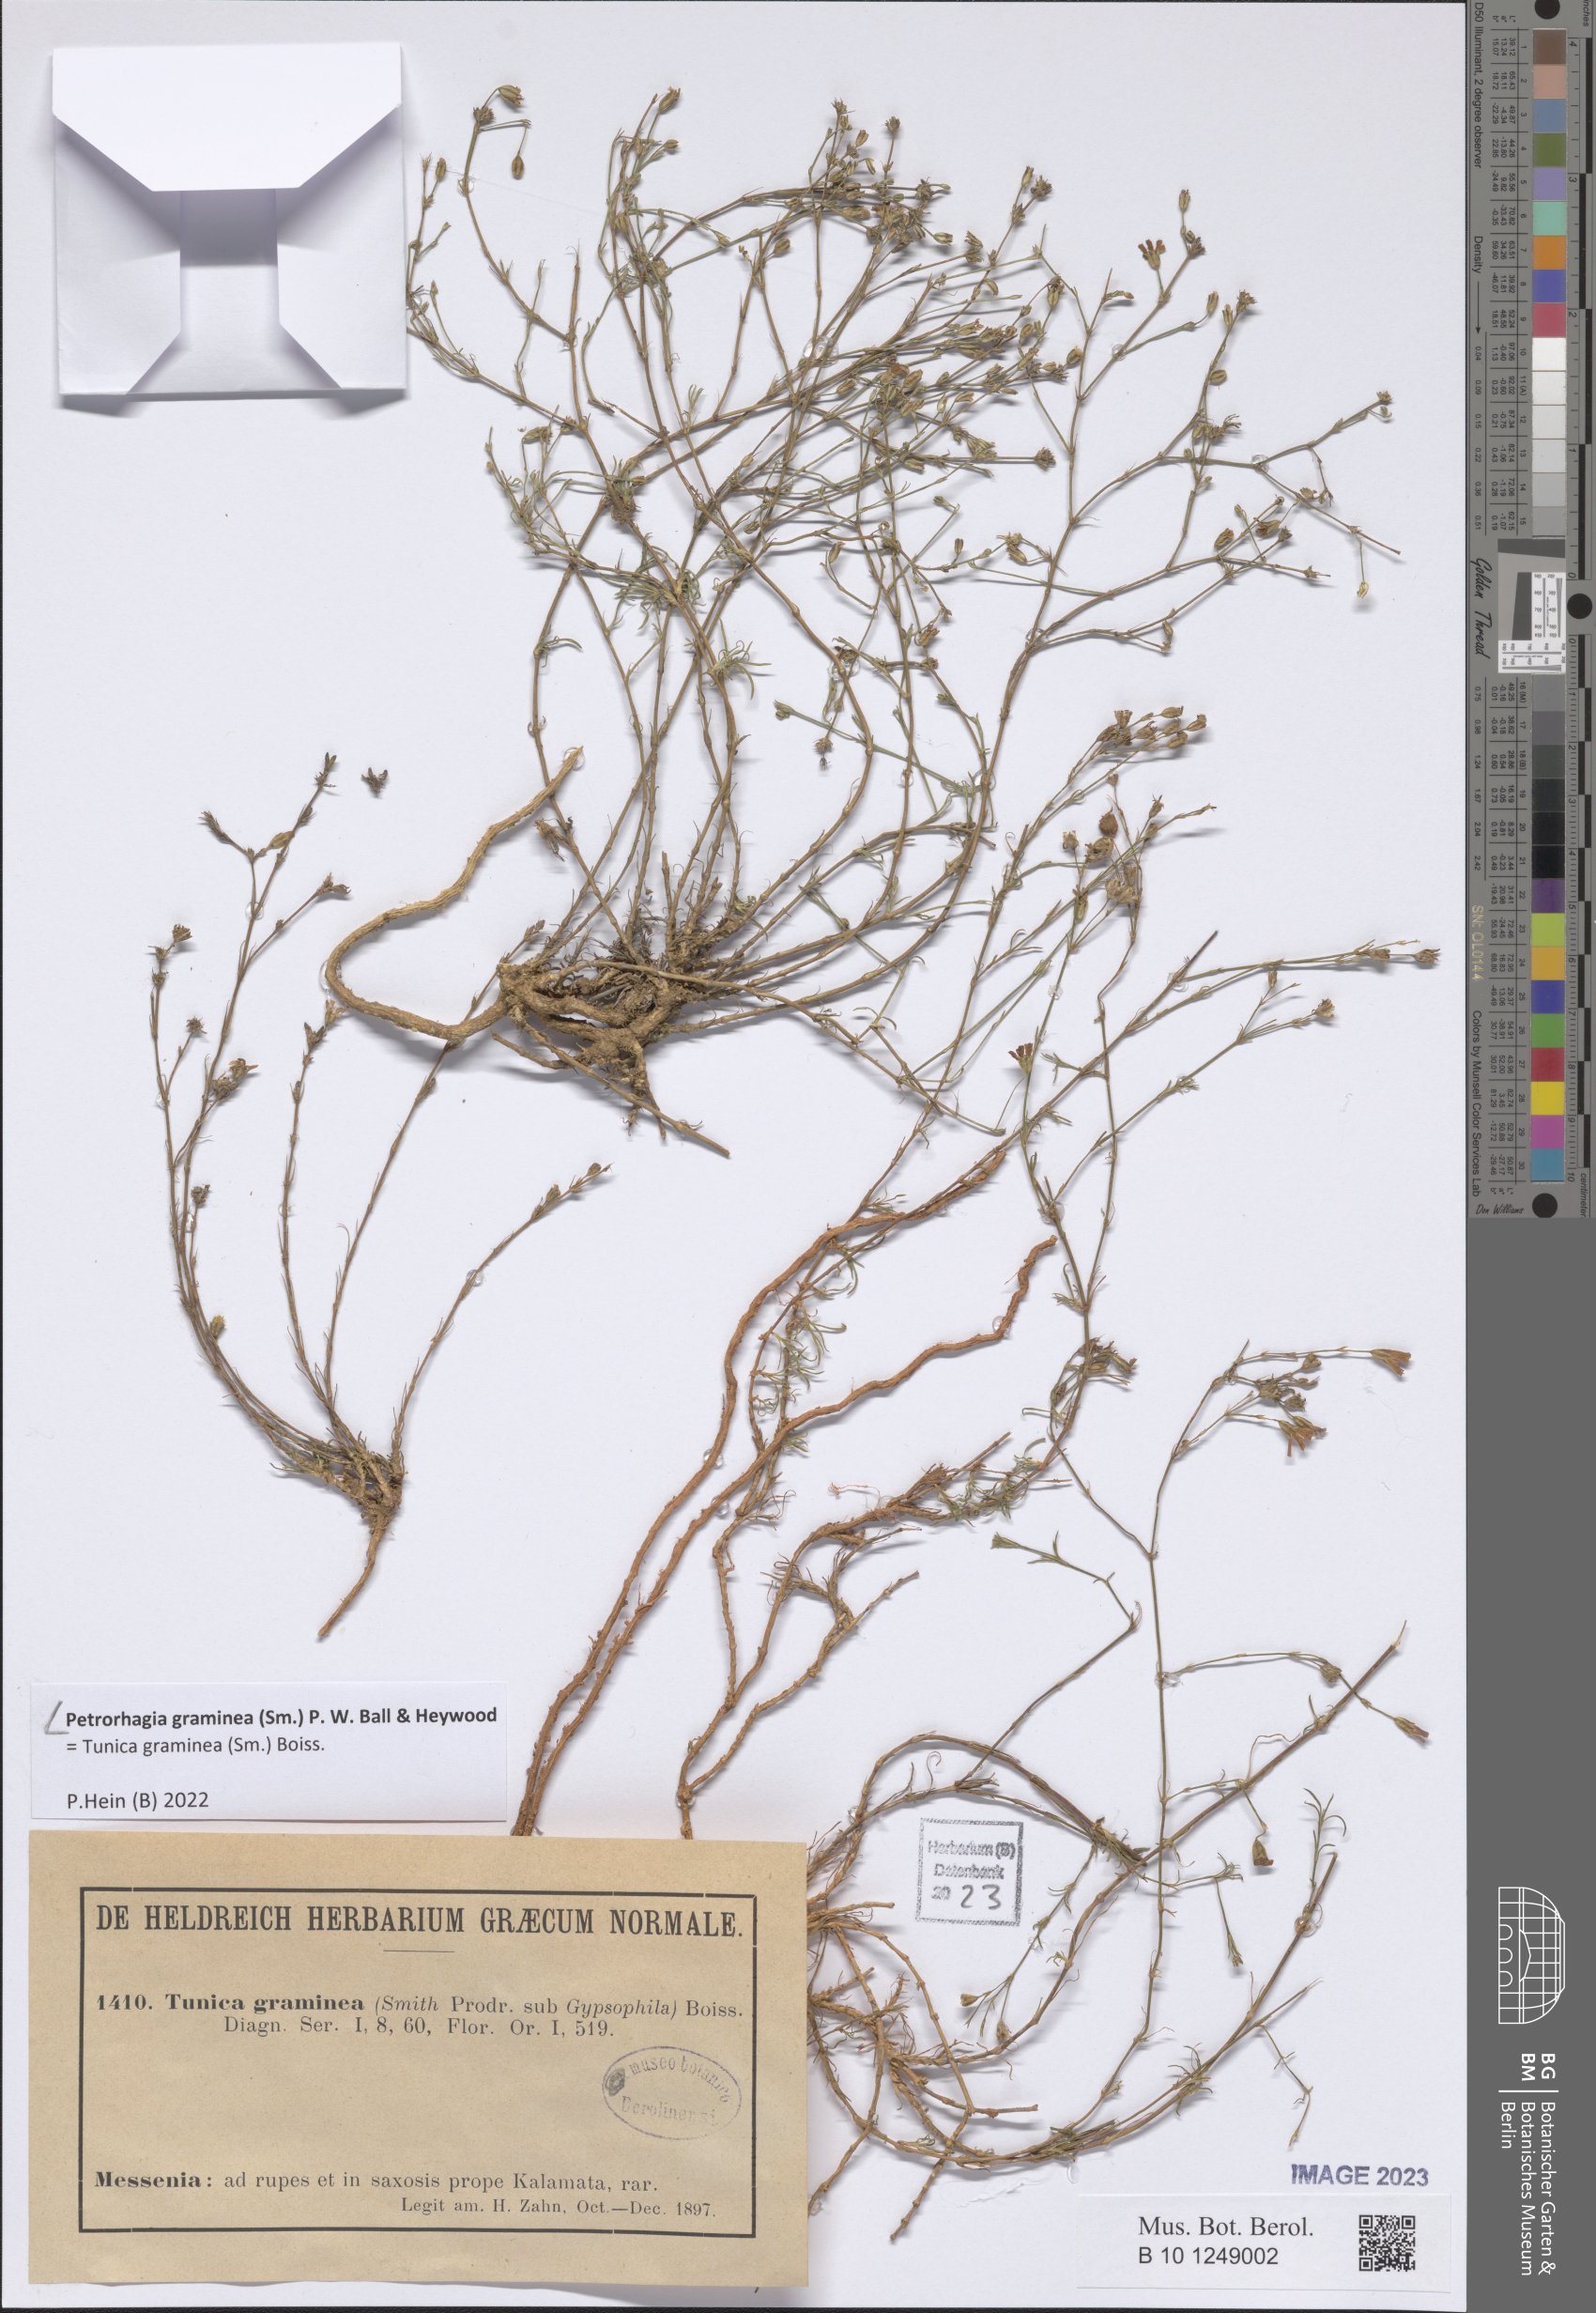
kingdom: Plantae
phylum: Tracheophyta
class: Magnoliopsida
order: Caryophyllales
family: Caryophyllaceae
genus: Petrorhagia
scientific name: Petrorhagia graminea
